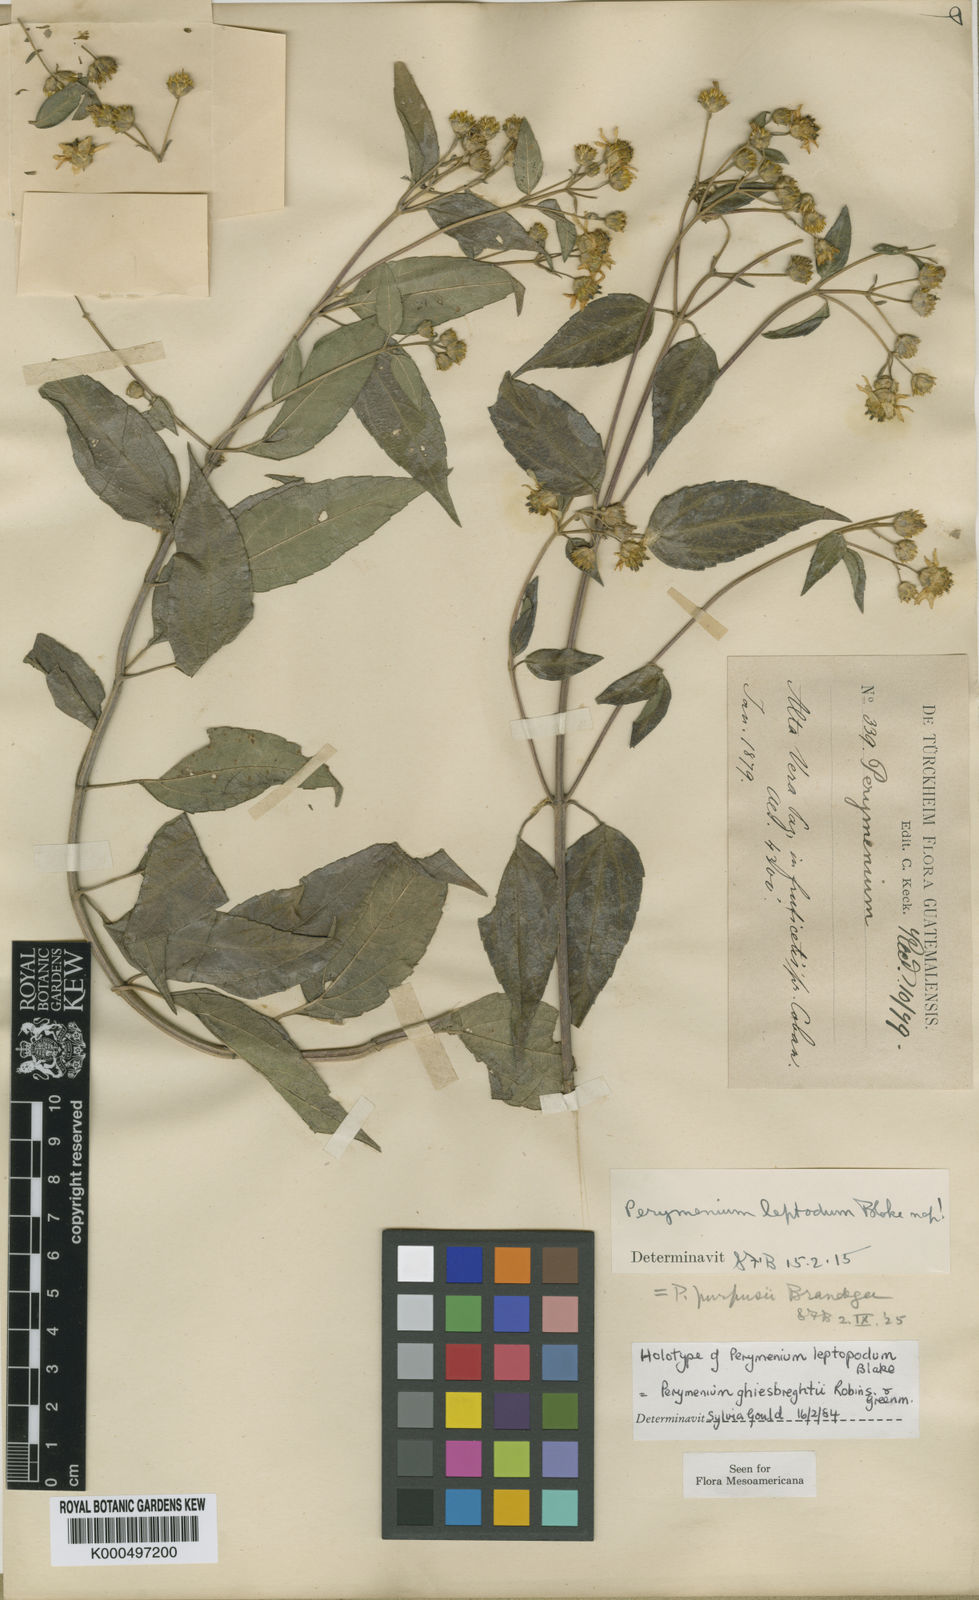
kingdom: Plantae
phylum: Tracheophyta
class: Magnoliopsida
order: Asterales
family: Asteraceae
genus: Perymenium
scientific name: Perymenium ghiesbreghtii
